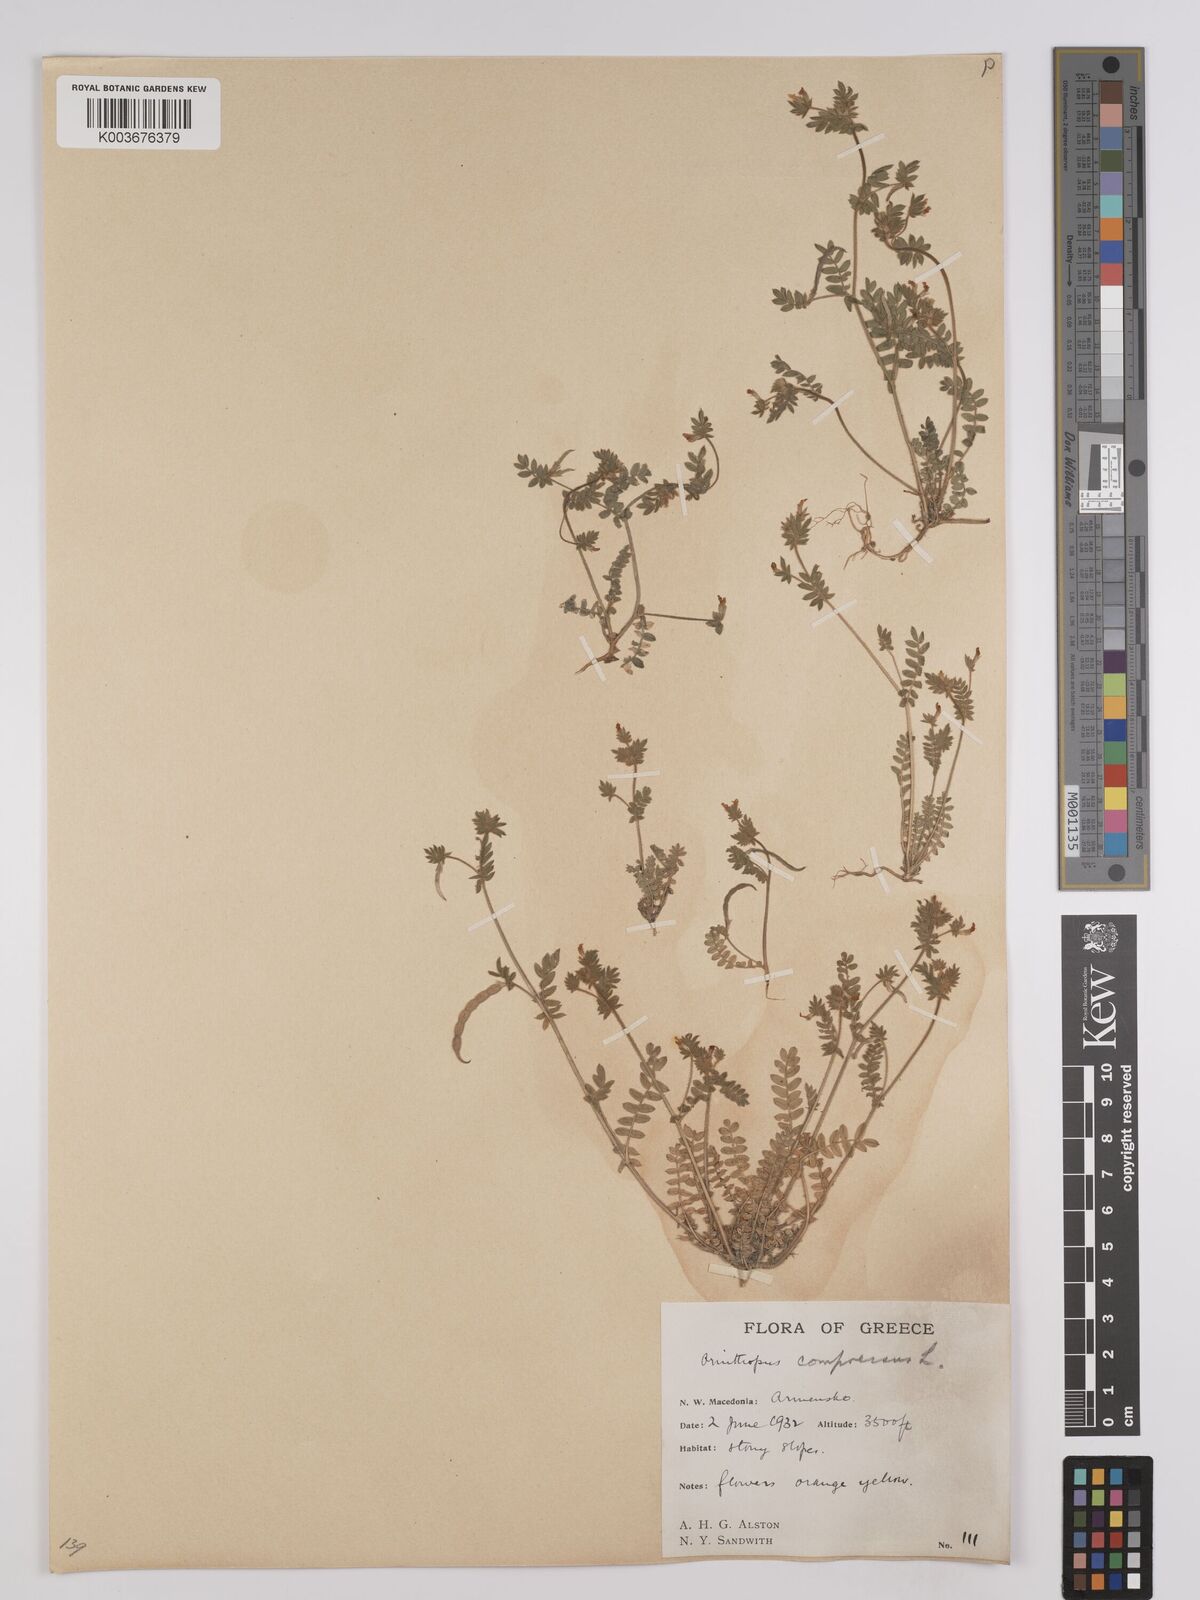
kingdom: Plantae
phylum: Tracheophyta
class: Magnoliopsida
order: Fabales
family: Fabaceae
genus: Ornithopus
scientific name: Ornithopus compressus
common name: Yellow serradella
